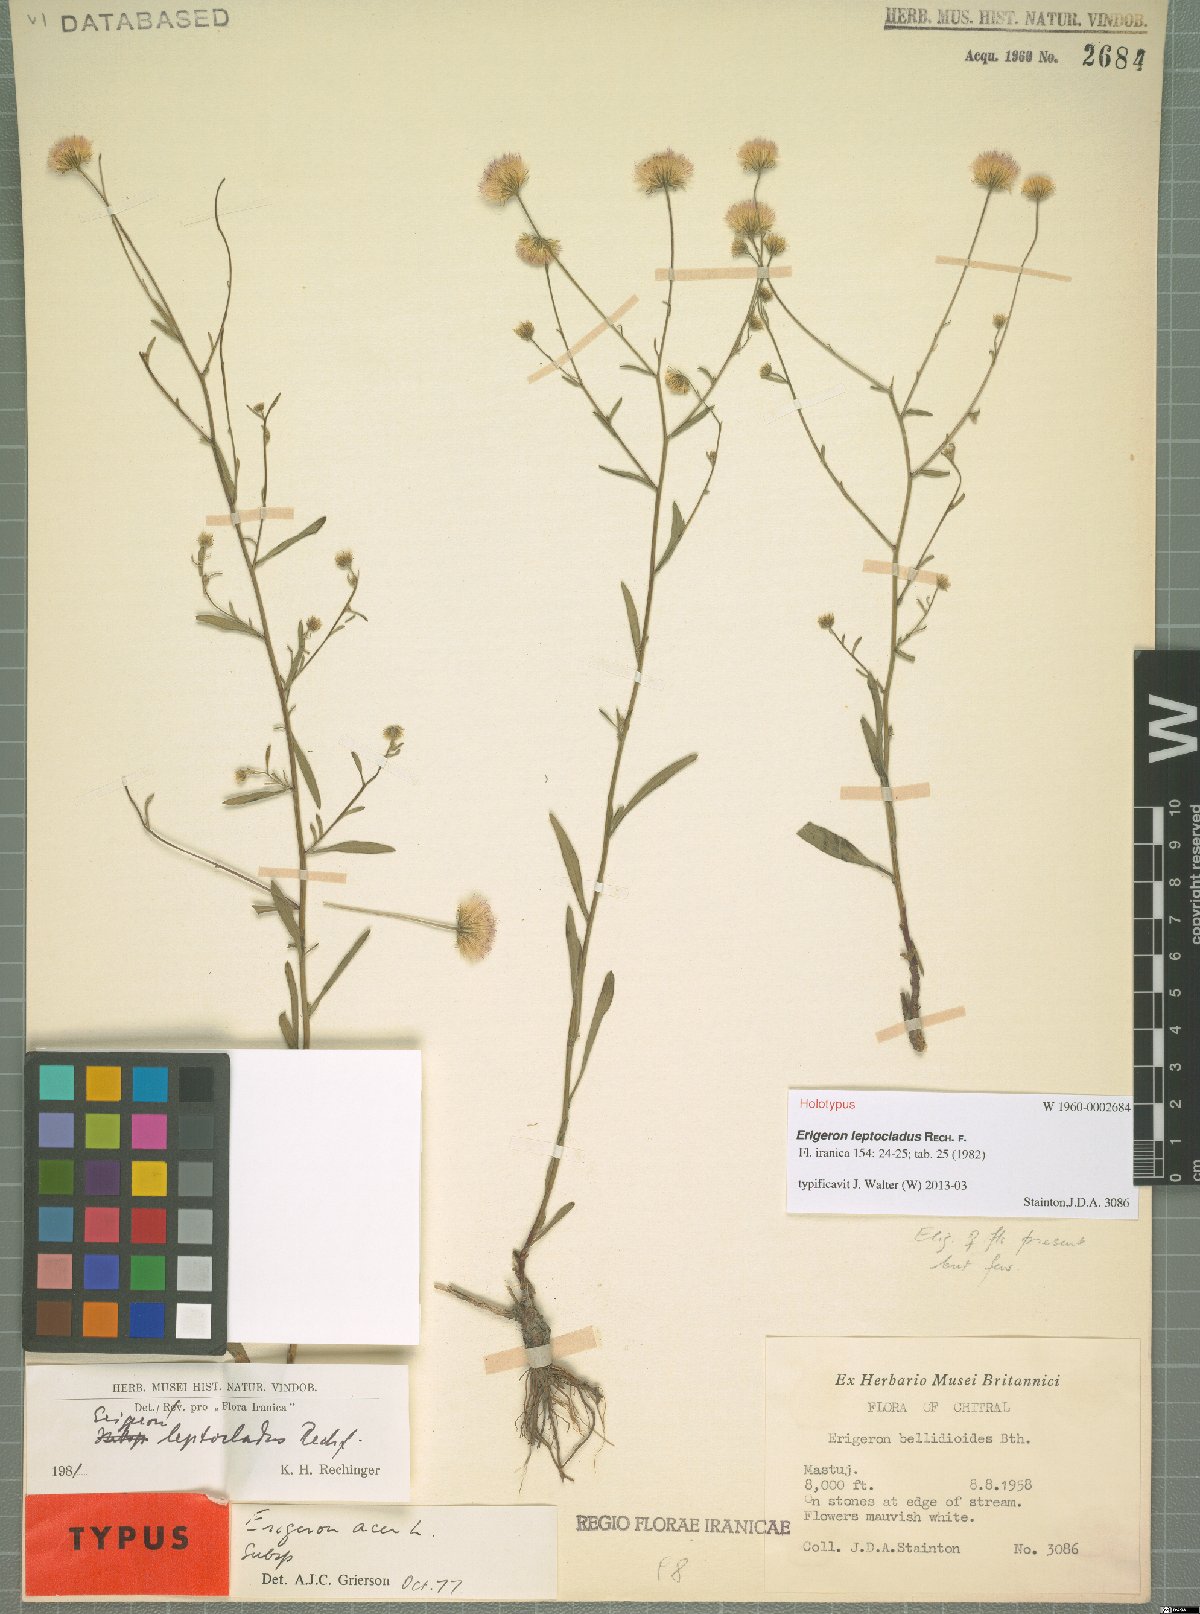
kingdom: Plantae
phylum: Tracheophyta
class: Magnoliopsida
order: Asterales
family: Asteraceae
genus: Erigeron
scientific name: Erigeron leptocladus
